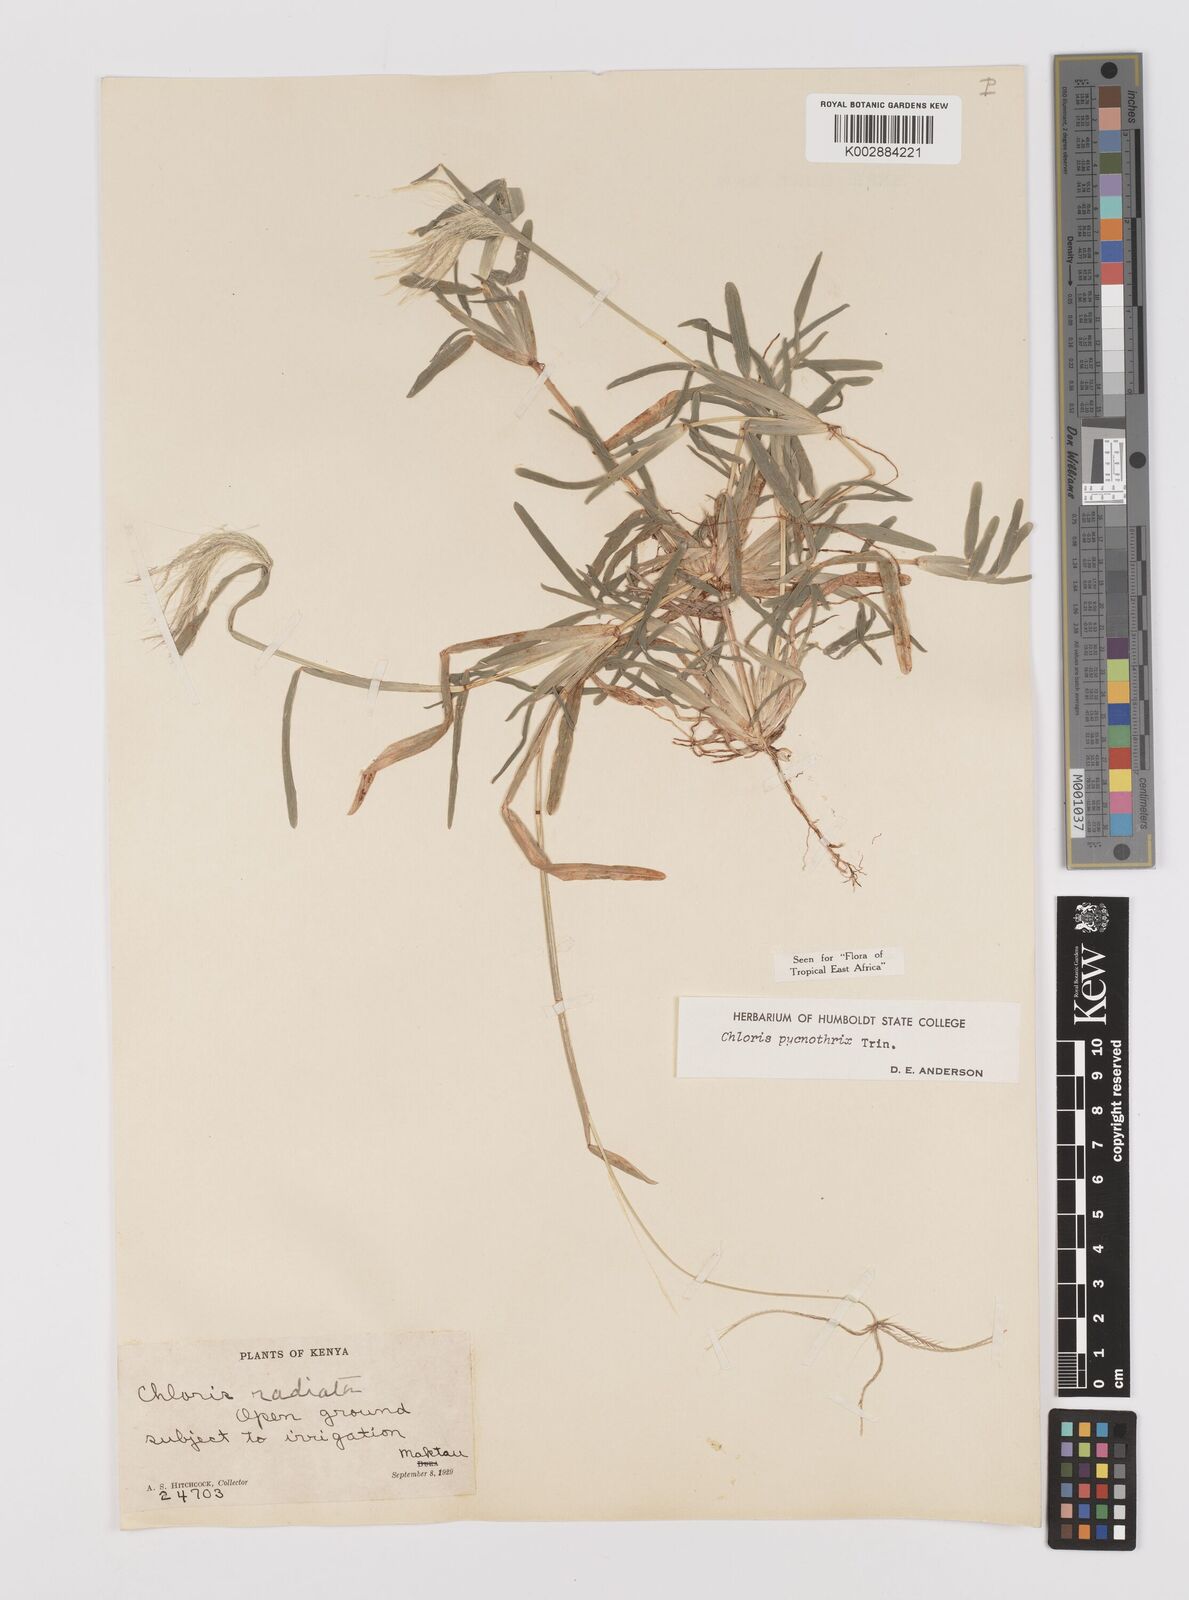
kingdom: Plantae
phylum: Tracheophyta
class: Liliopsida
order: Poales
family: Poaceae
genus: Chloris
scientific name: Chloris pycnothrix
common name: Spiderweb chloris
